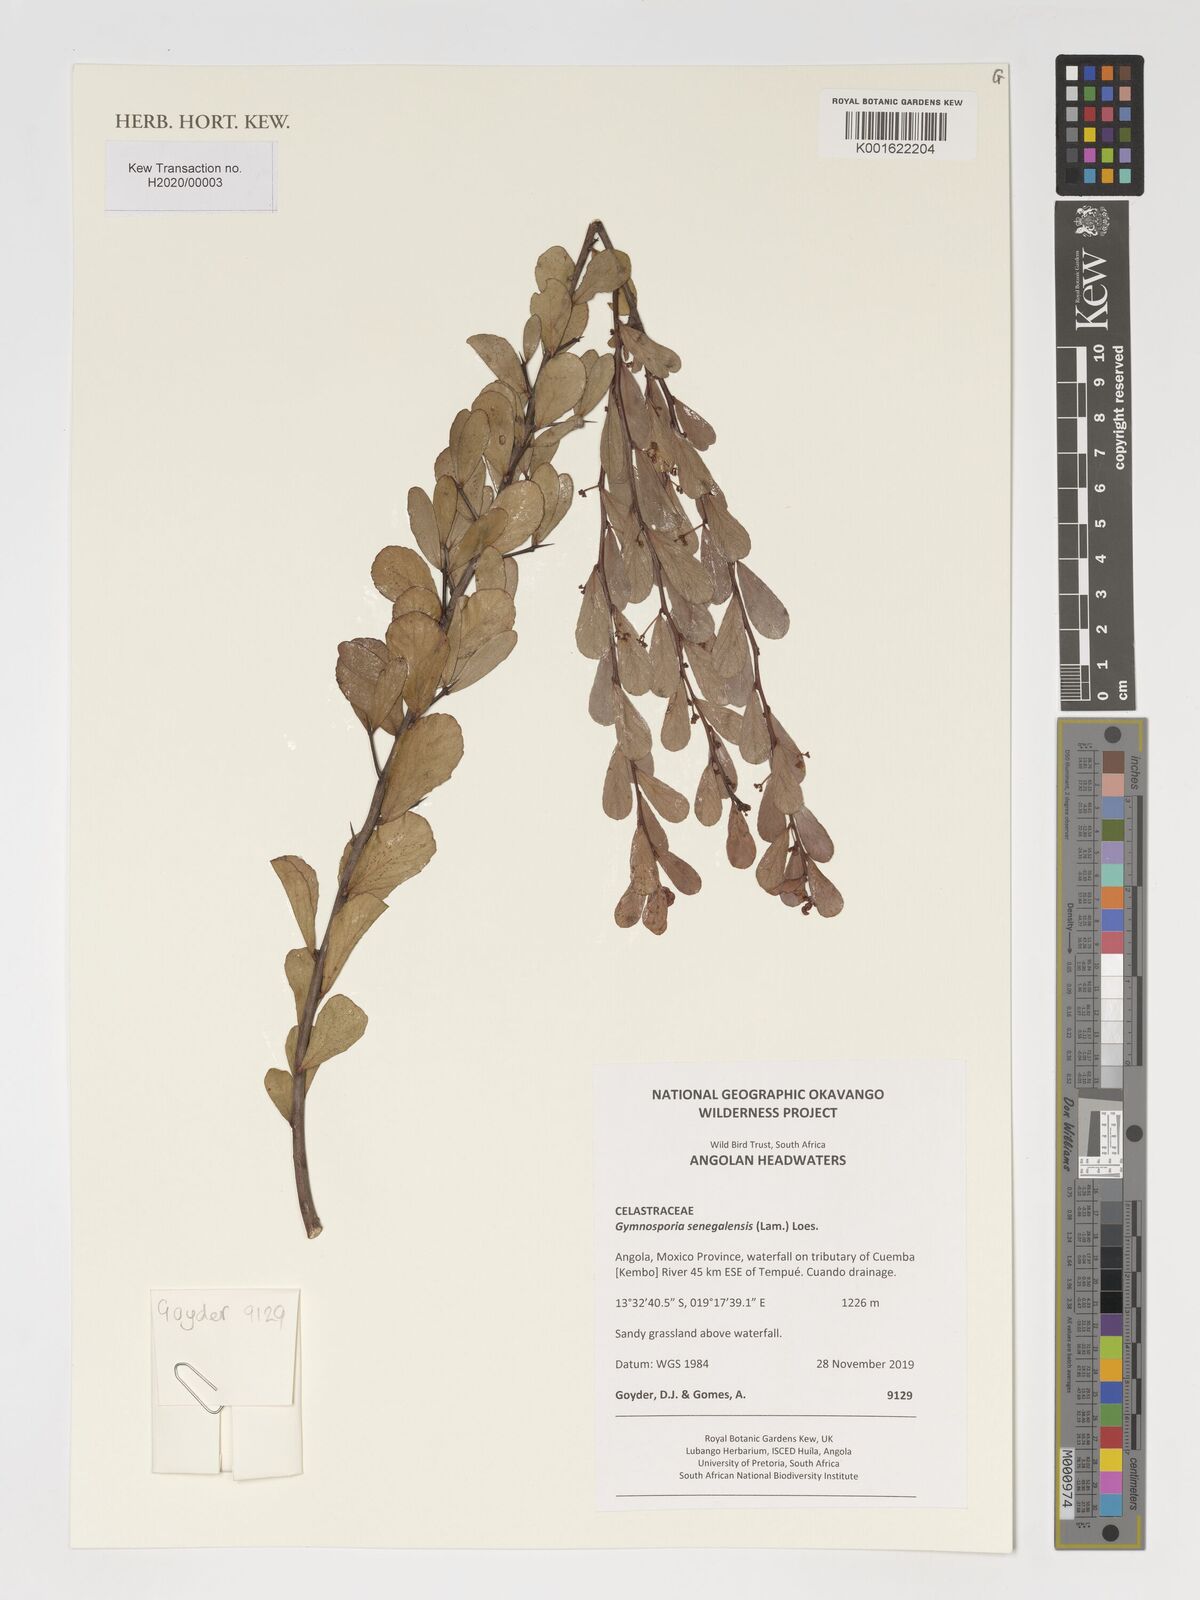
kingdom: Plantae
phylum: Tracheophyta
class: Magnoliopsida
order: Celastrales
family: Celastraceae
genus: Gymnosporia
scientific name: Gymnosporia senegalensis
